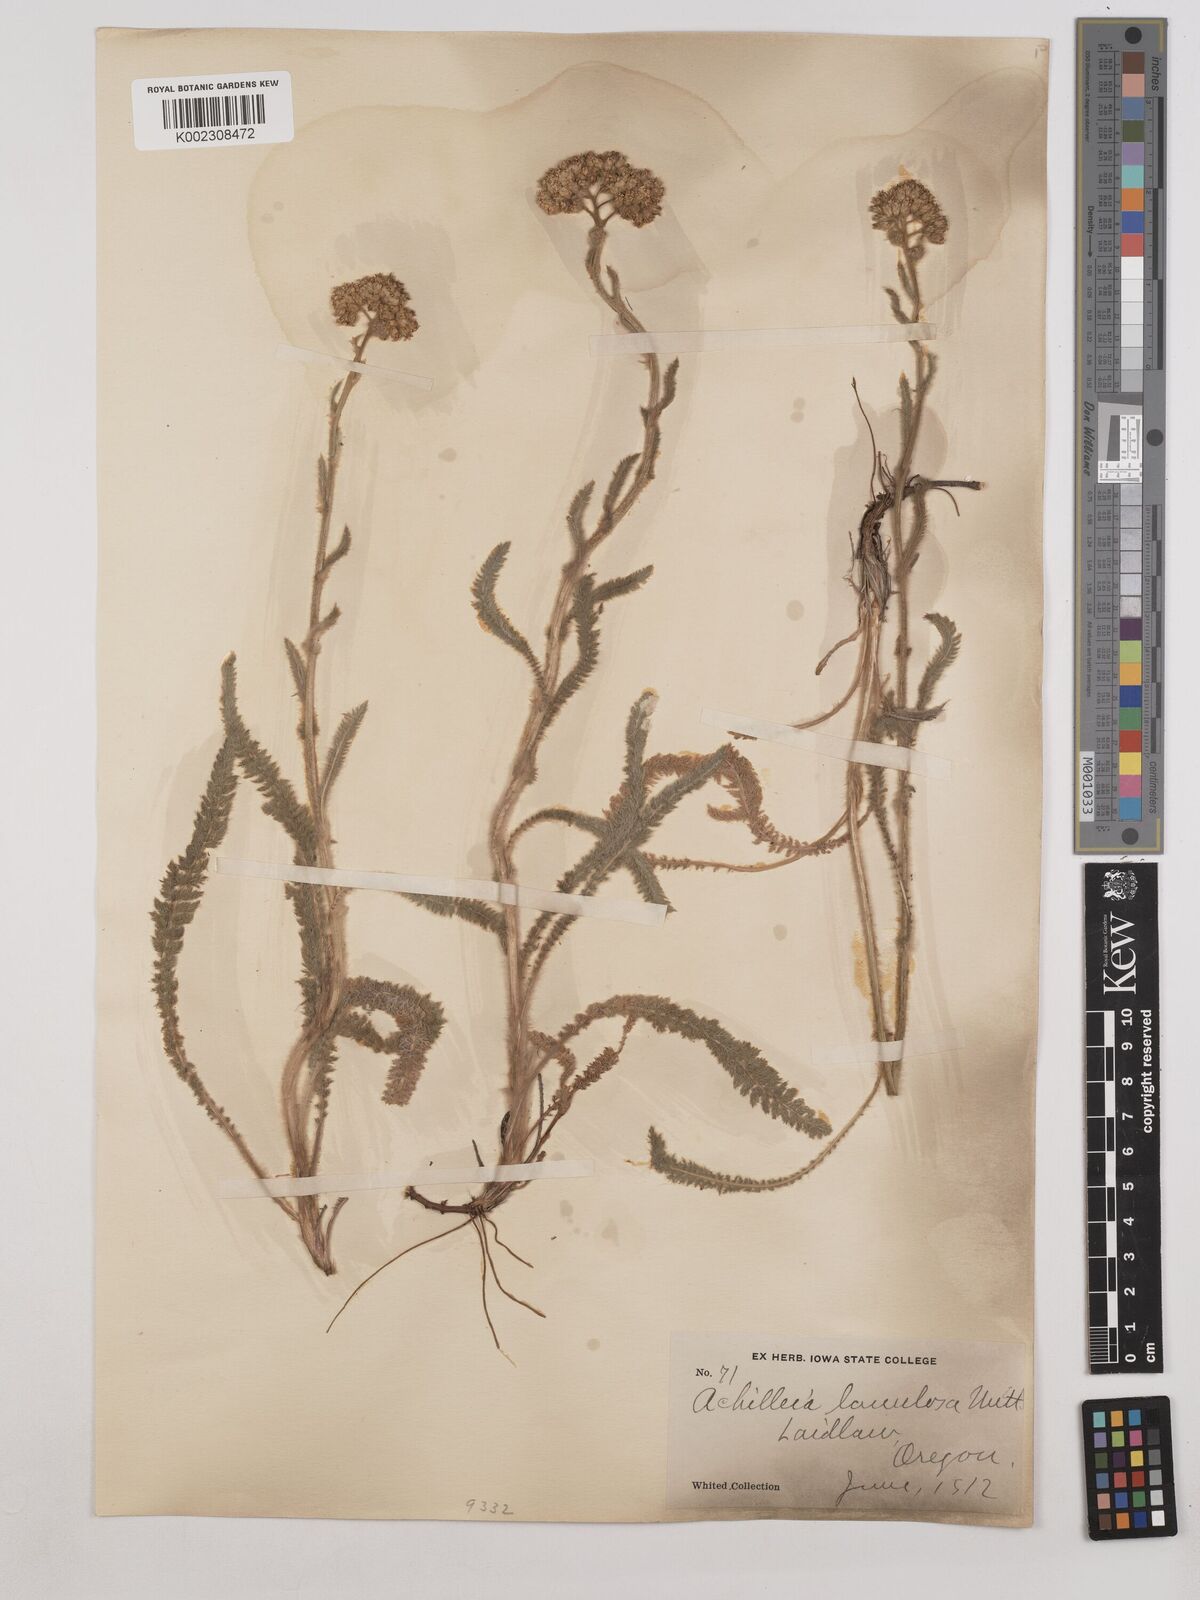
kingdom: Plantae
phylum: Tracheophyta
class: Magnoliopsida
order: Asterales
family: Asteraceae
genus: Achillea
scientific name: Achillea millefolium
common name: Yarrow
